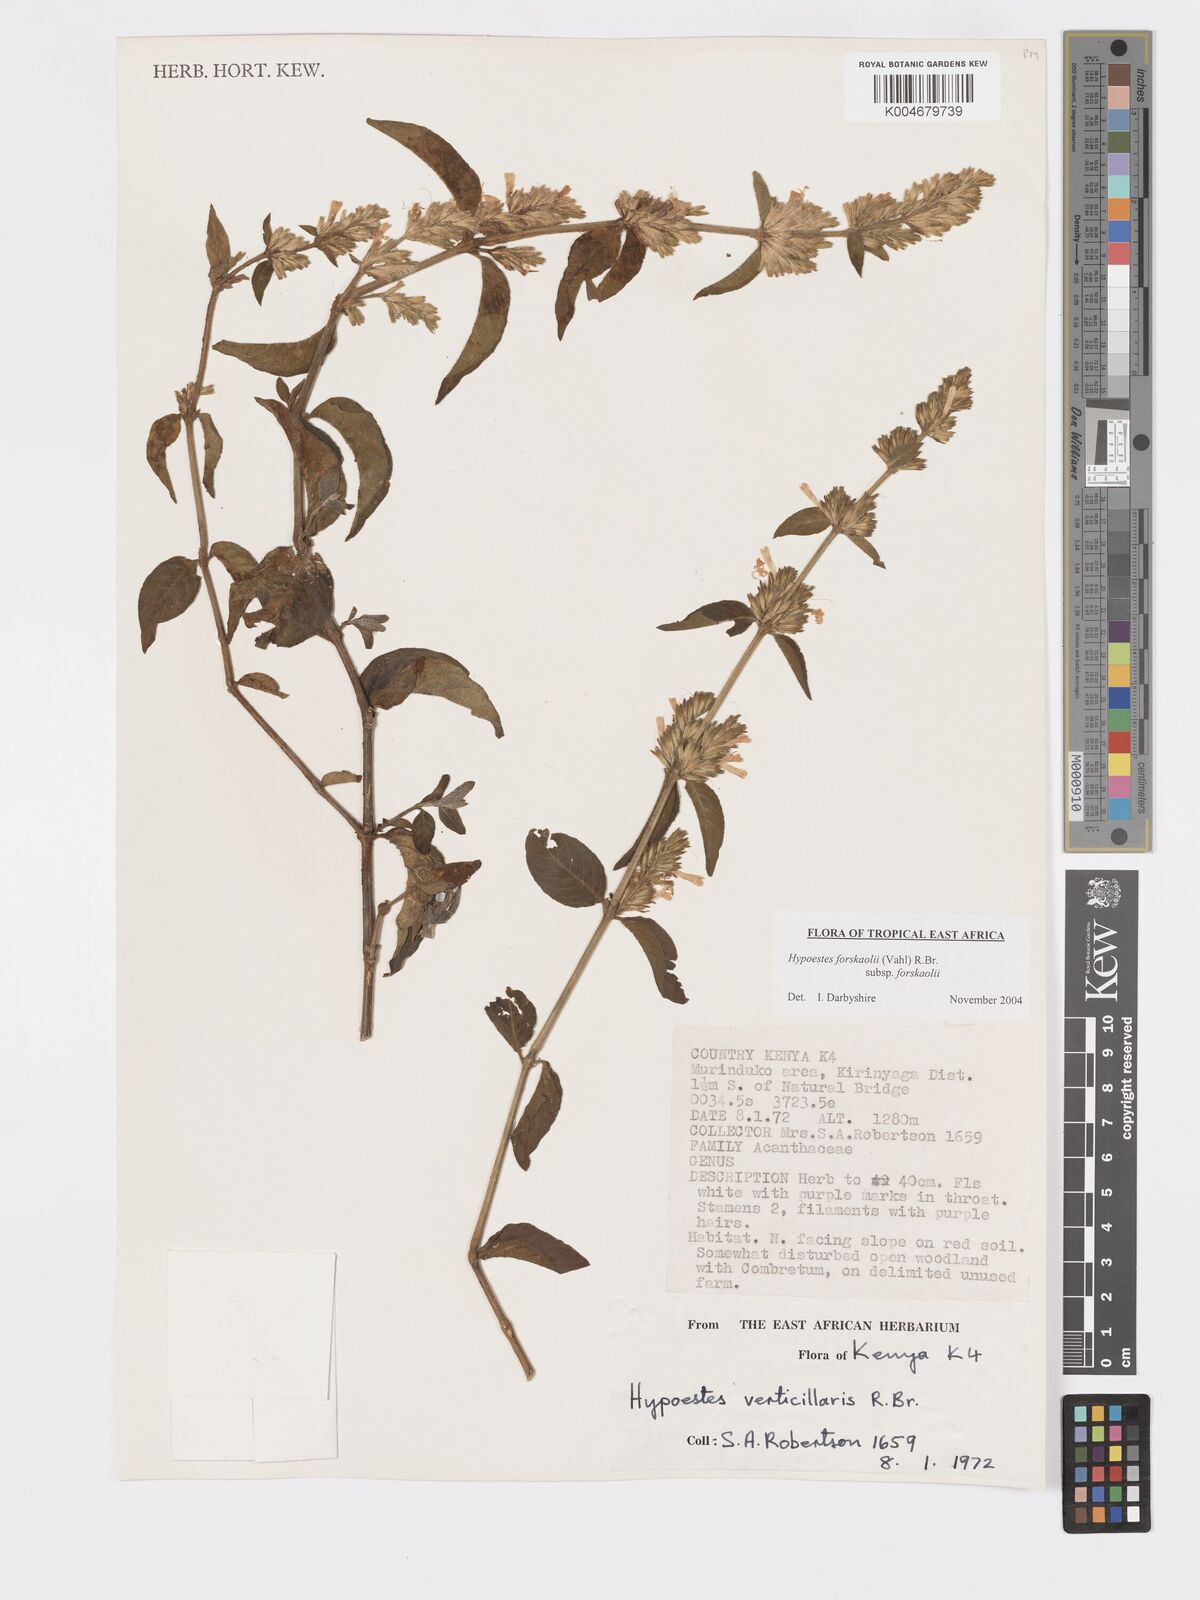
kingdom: Plantae
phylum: Tracheophyta
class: Magnoliopsida
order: Lamiales
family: Acanthaceae
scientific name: Acanthaceae
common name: Acanthaceae
